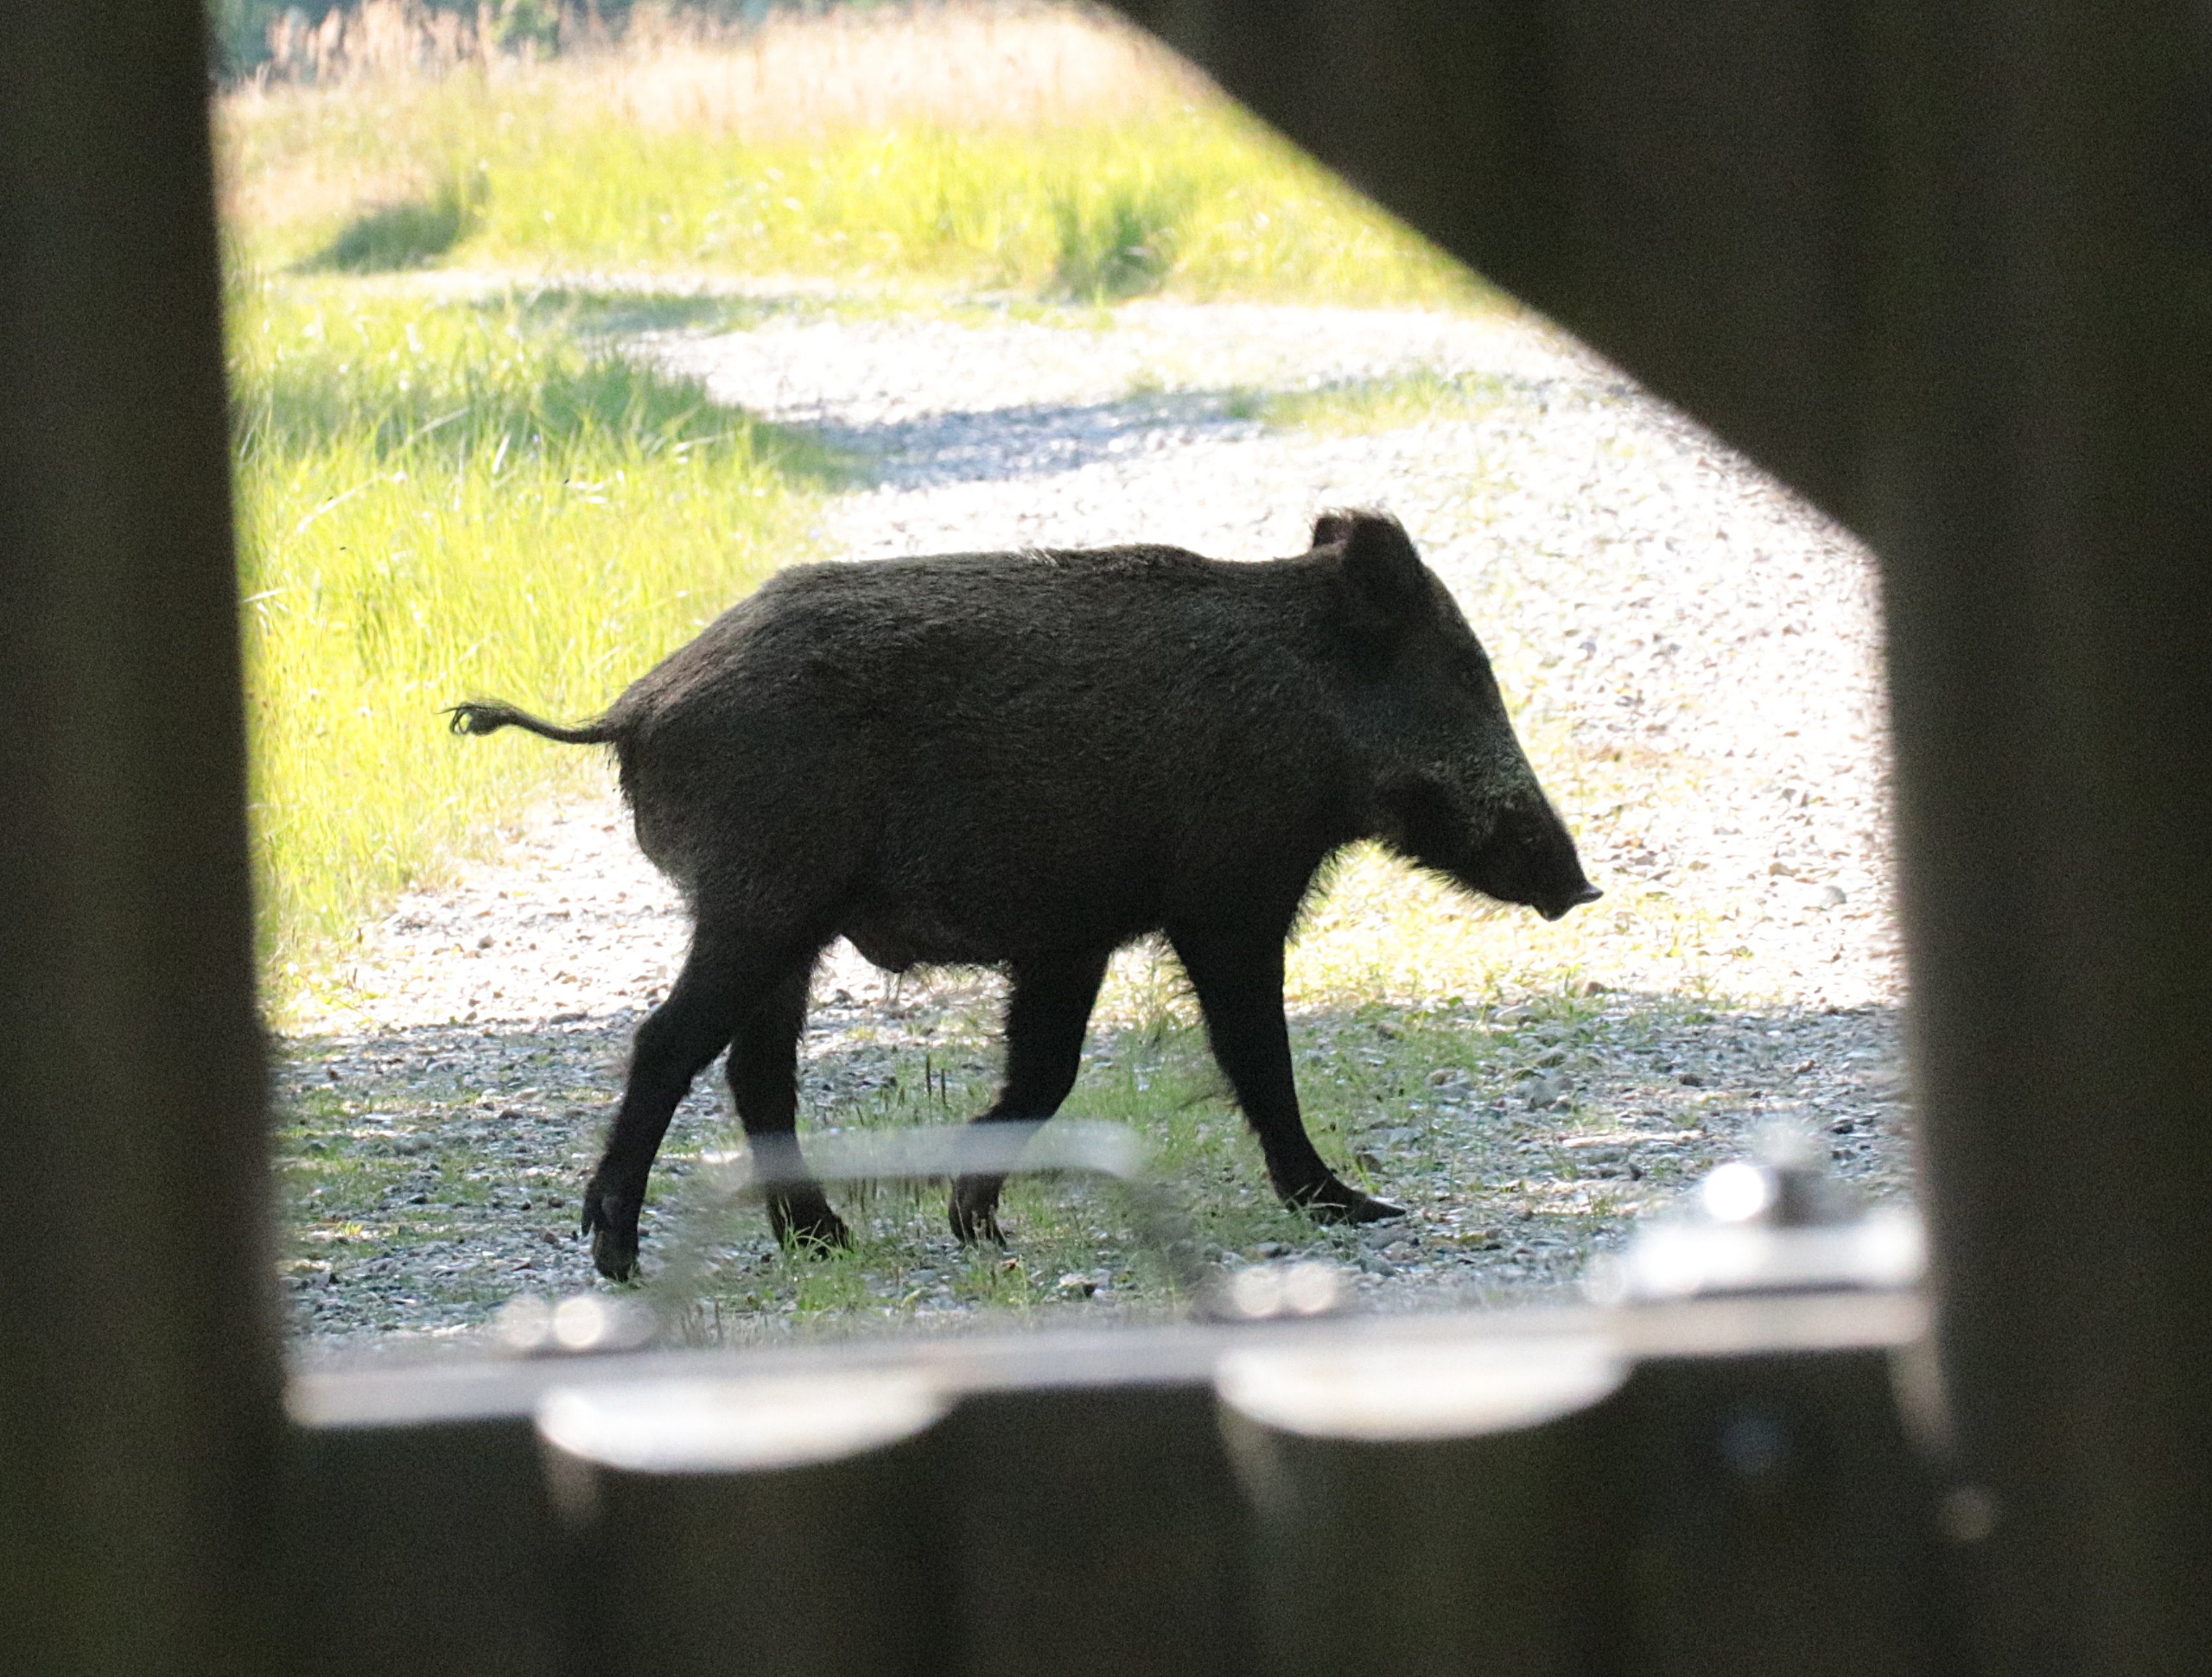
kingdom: Animalia
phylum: Chordata
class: Mammalia
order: Artiodactyla
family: Suidae
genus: Sus
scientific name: Sus scrofa
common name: Vildsvin
